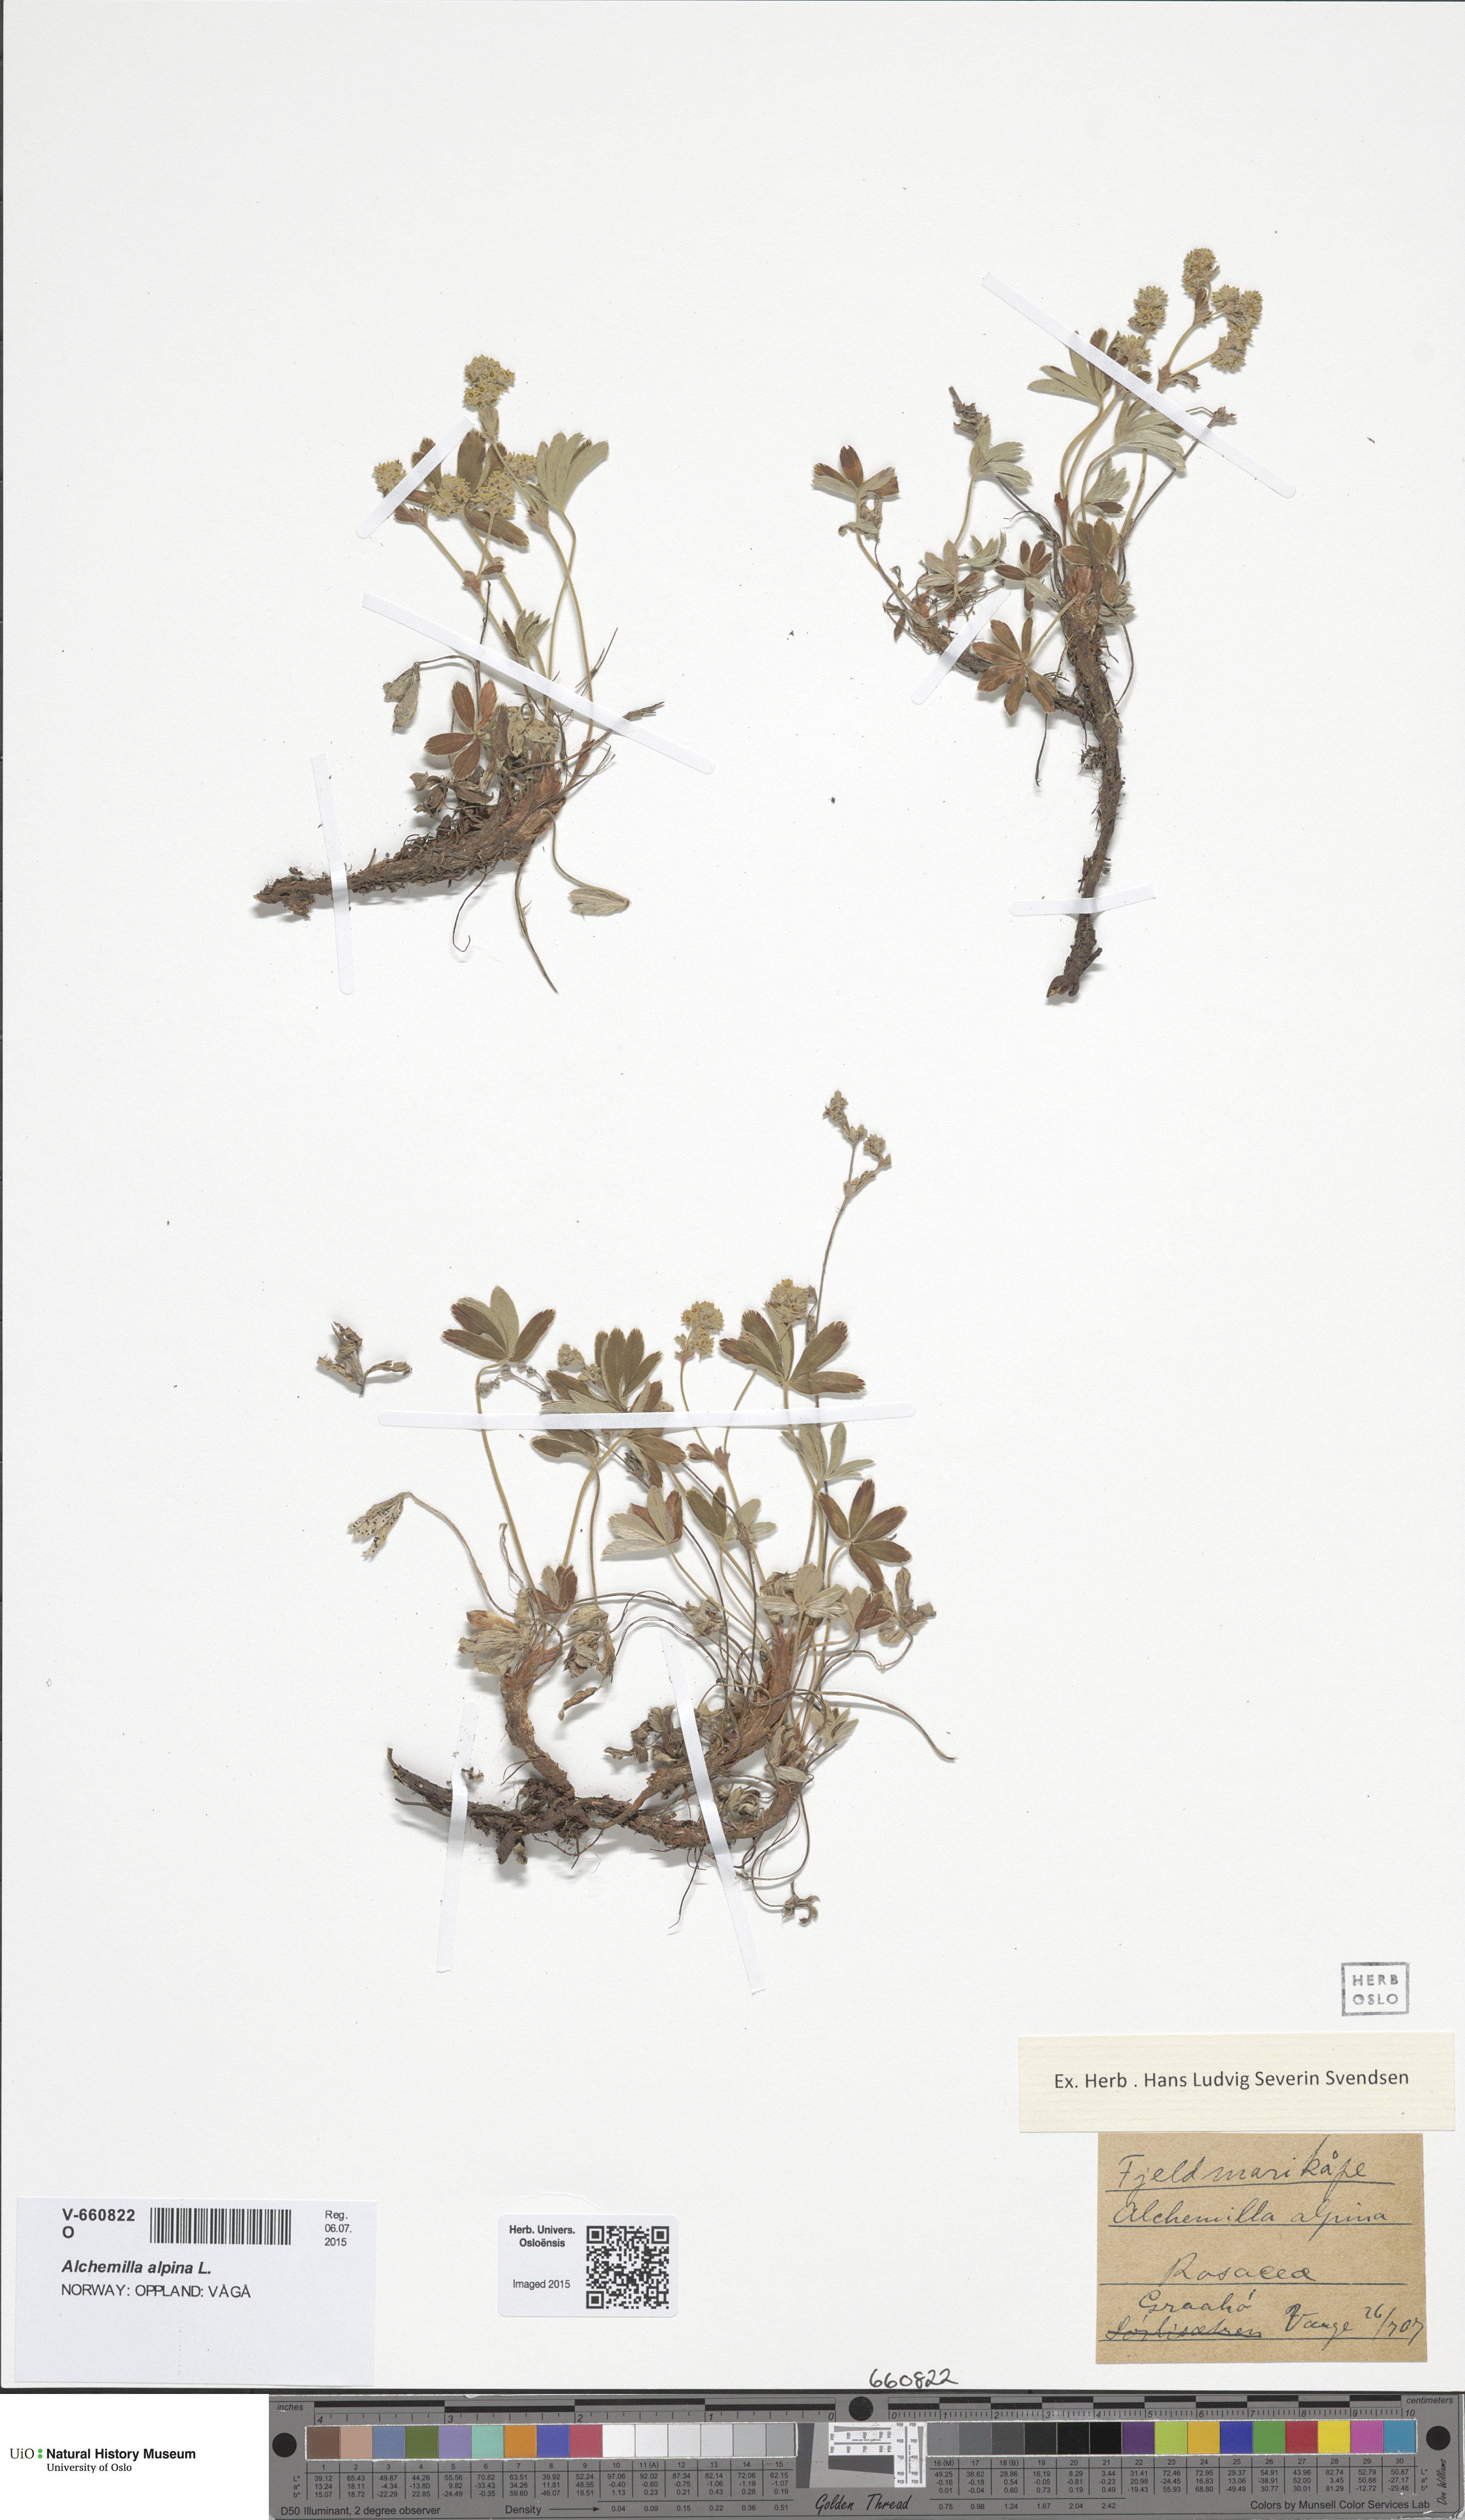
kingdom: Plantae
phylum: Tracheophyta
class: Magnoliopsida
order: Rosales
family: Rosaceae
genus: Alchemilla
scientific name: Alchemilla alpina
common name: Alpine lady's-mantle
